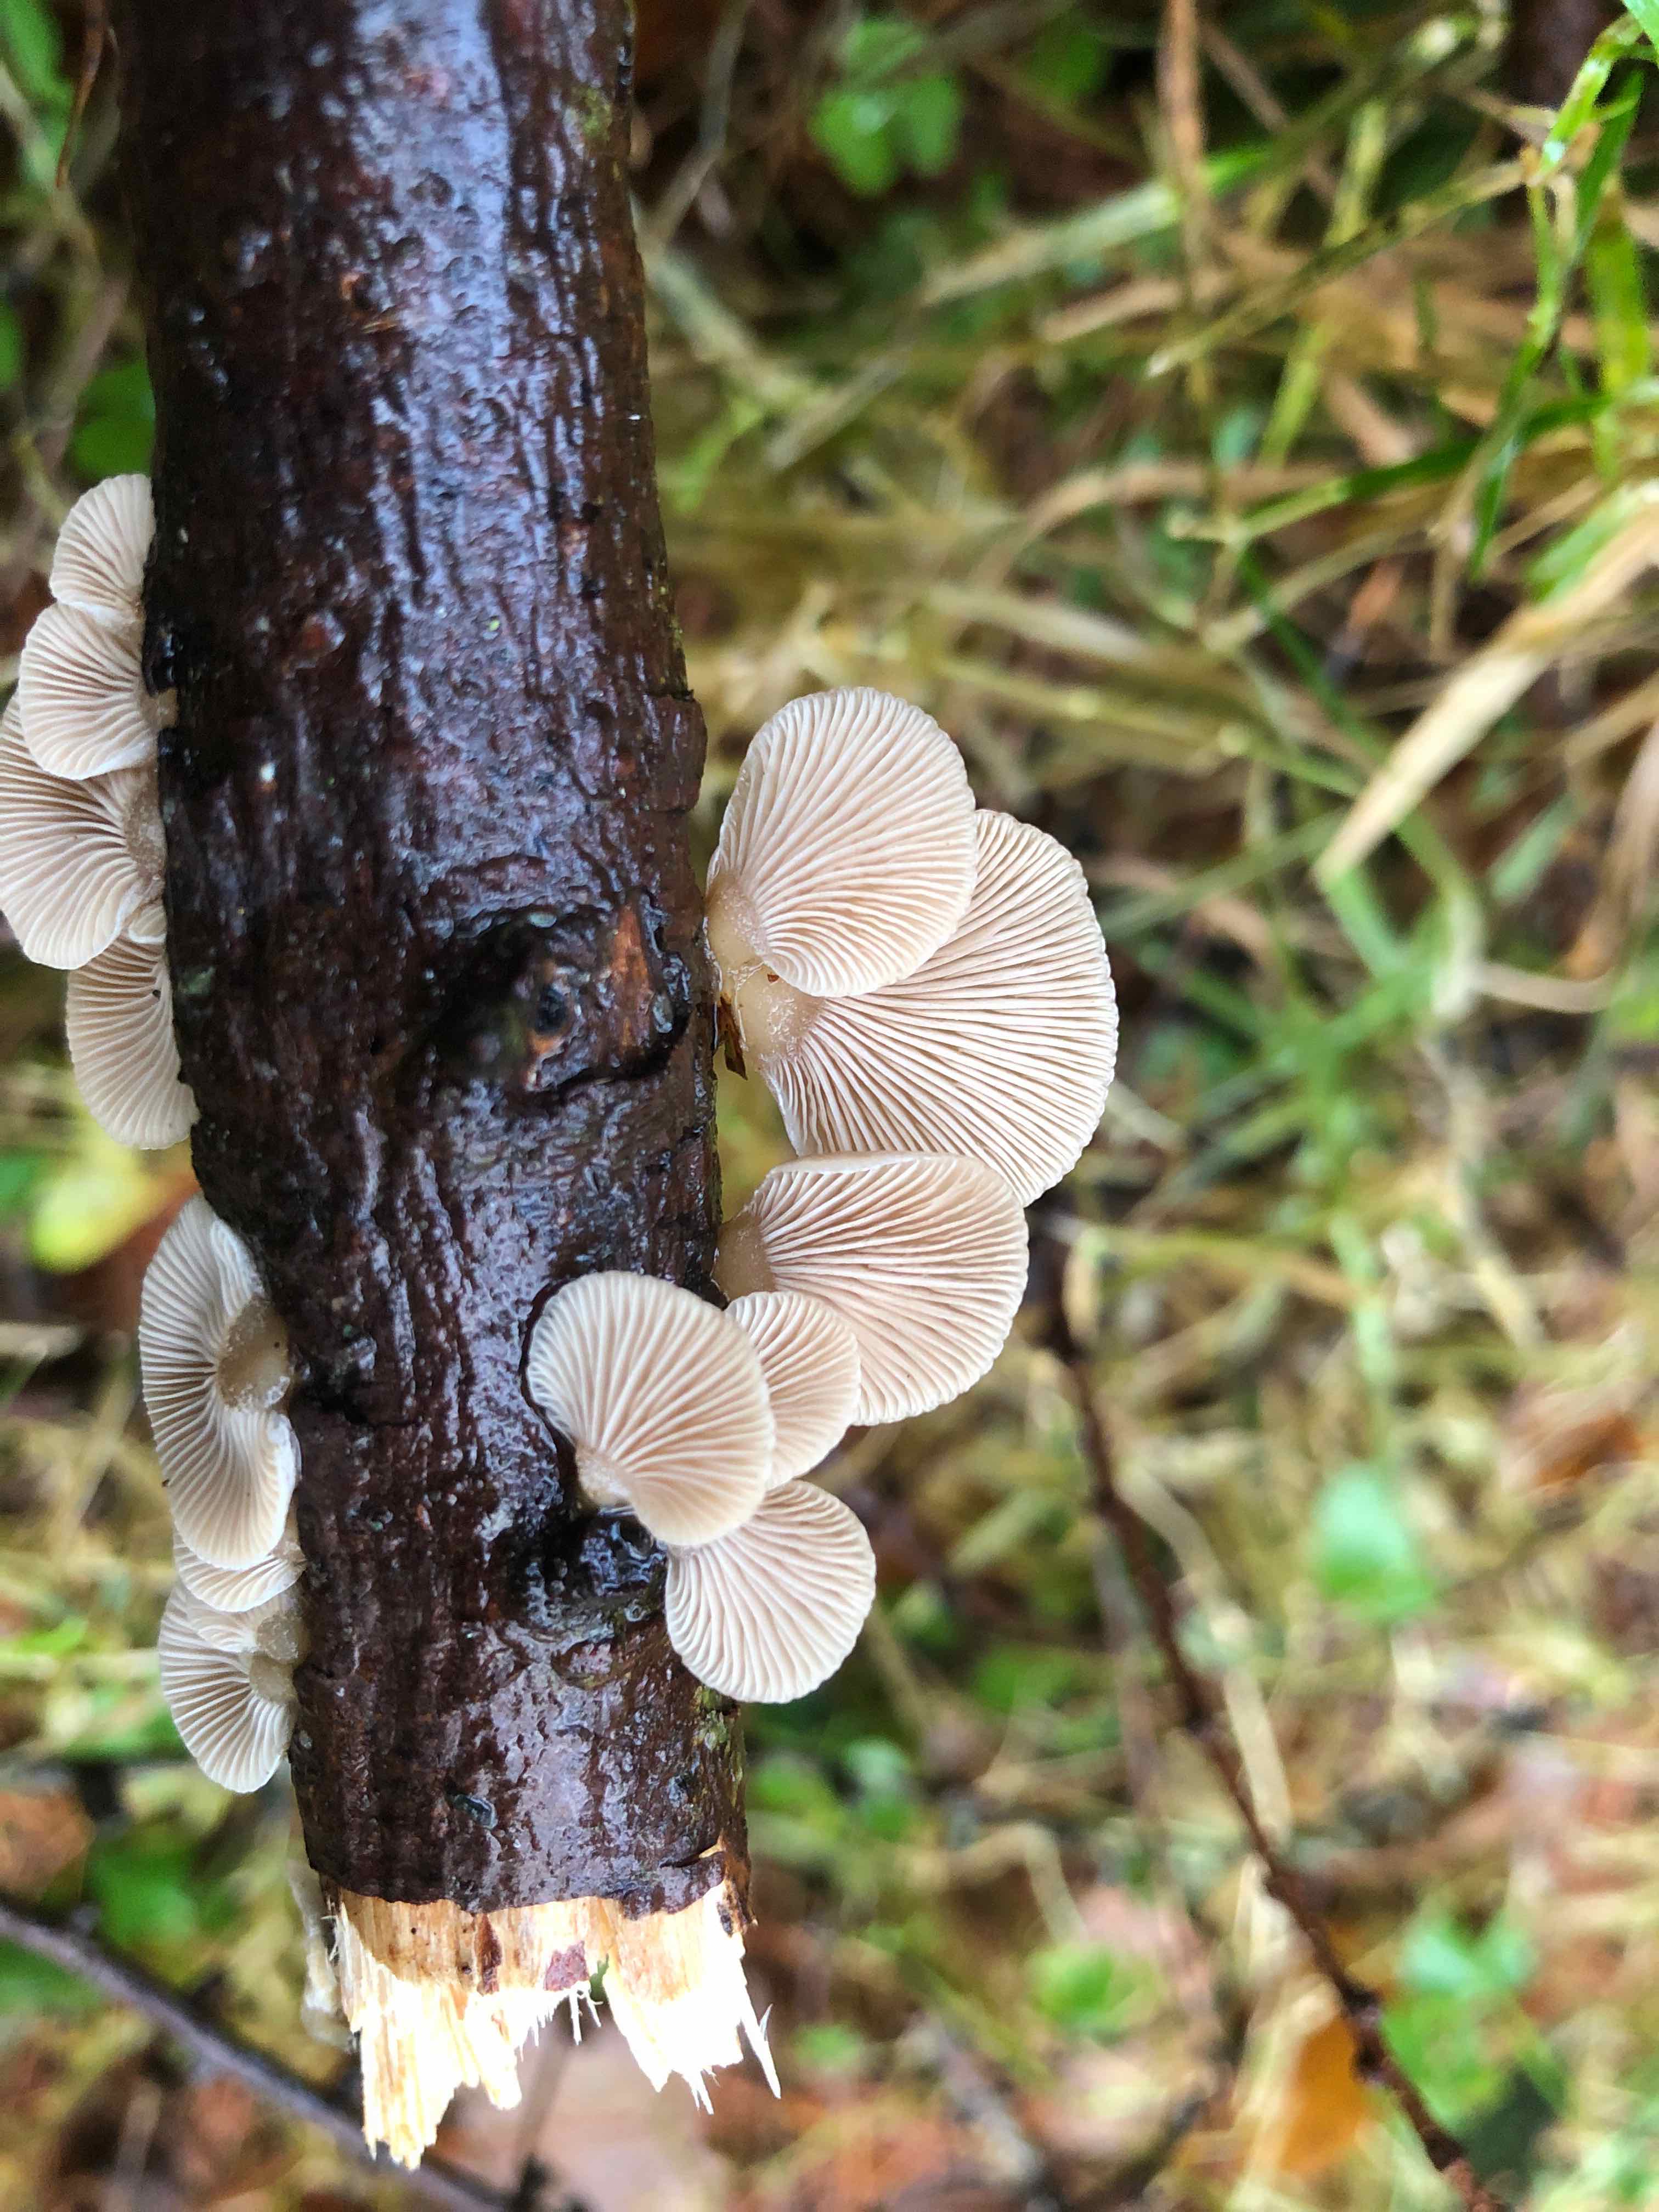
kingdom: Fungi
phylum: Basidiomycota
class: Agaricomycetes
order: Agaricales
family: Mycenaceae
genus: Panellus
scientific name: Panellus mitis
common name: mild epaulethat
